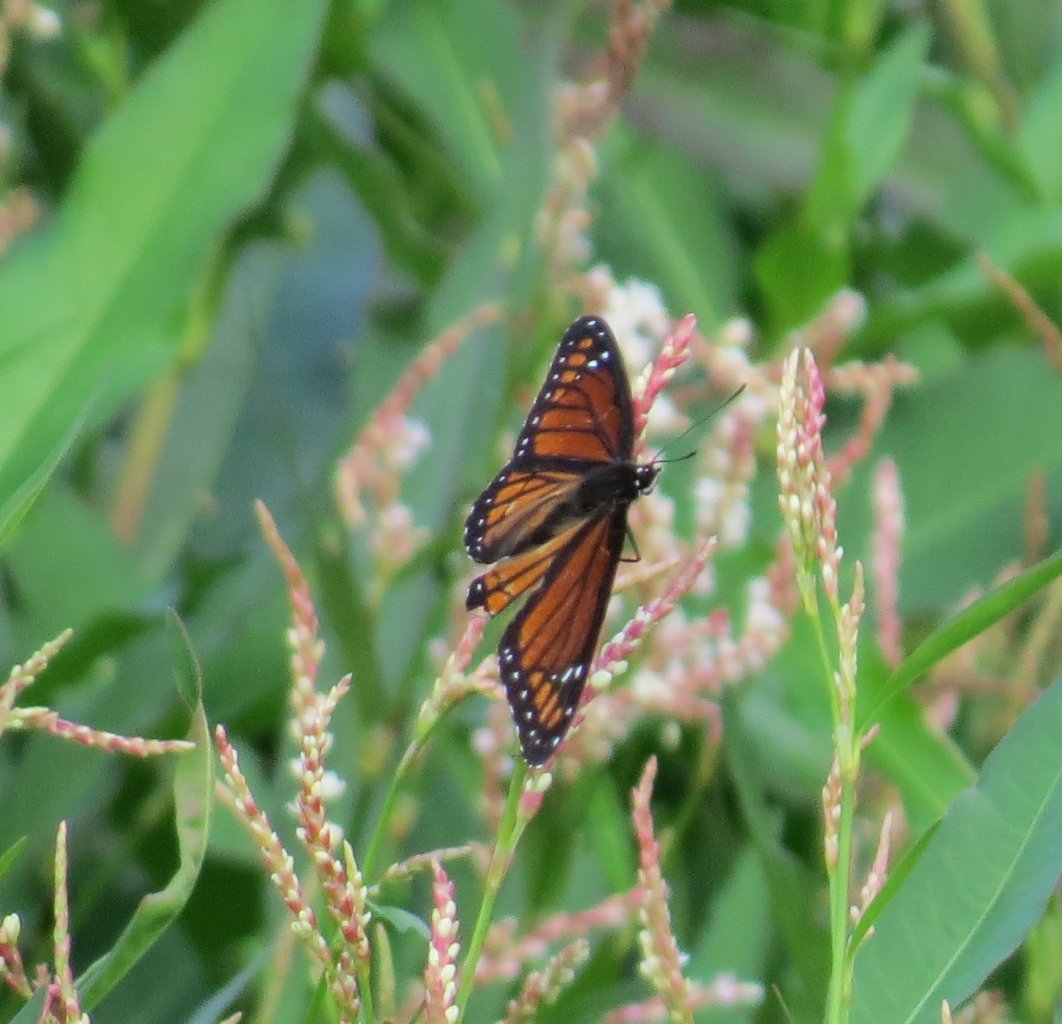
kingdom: Animalia
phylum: Arthropoda
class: Insecta
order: Lepidoptera
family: Nymphalidae
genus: Limenitis
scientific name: Limenitis archippus
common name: Viceroy
